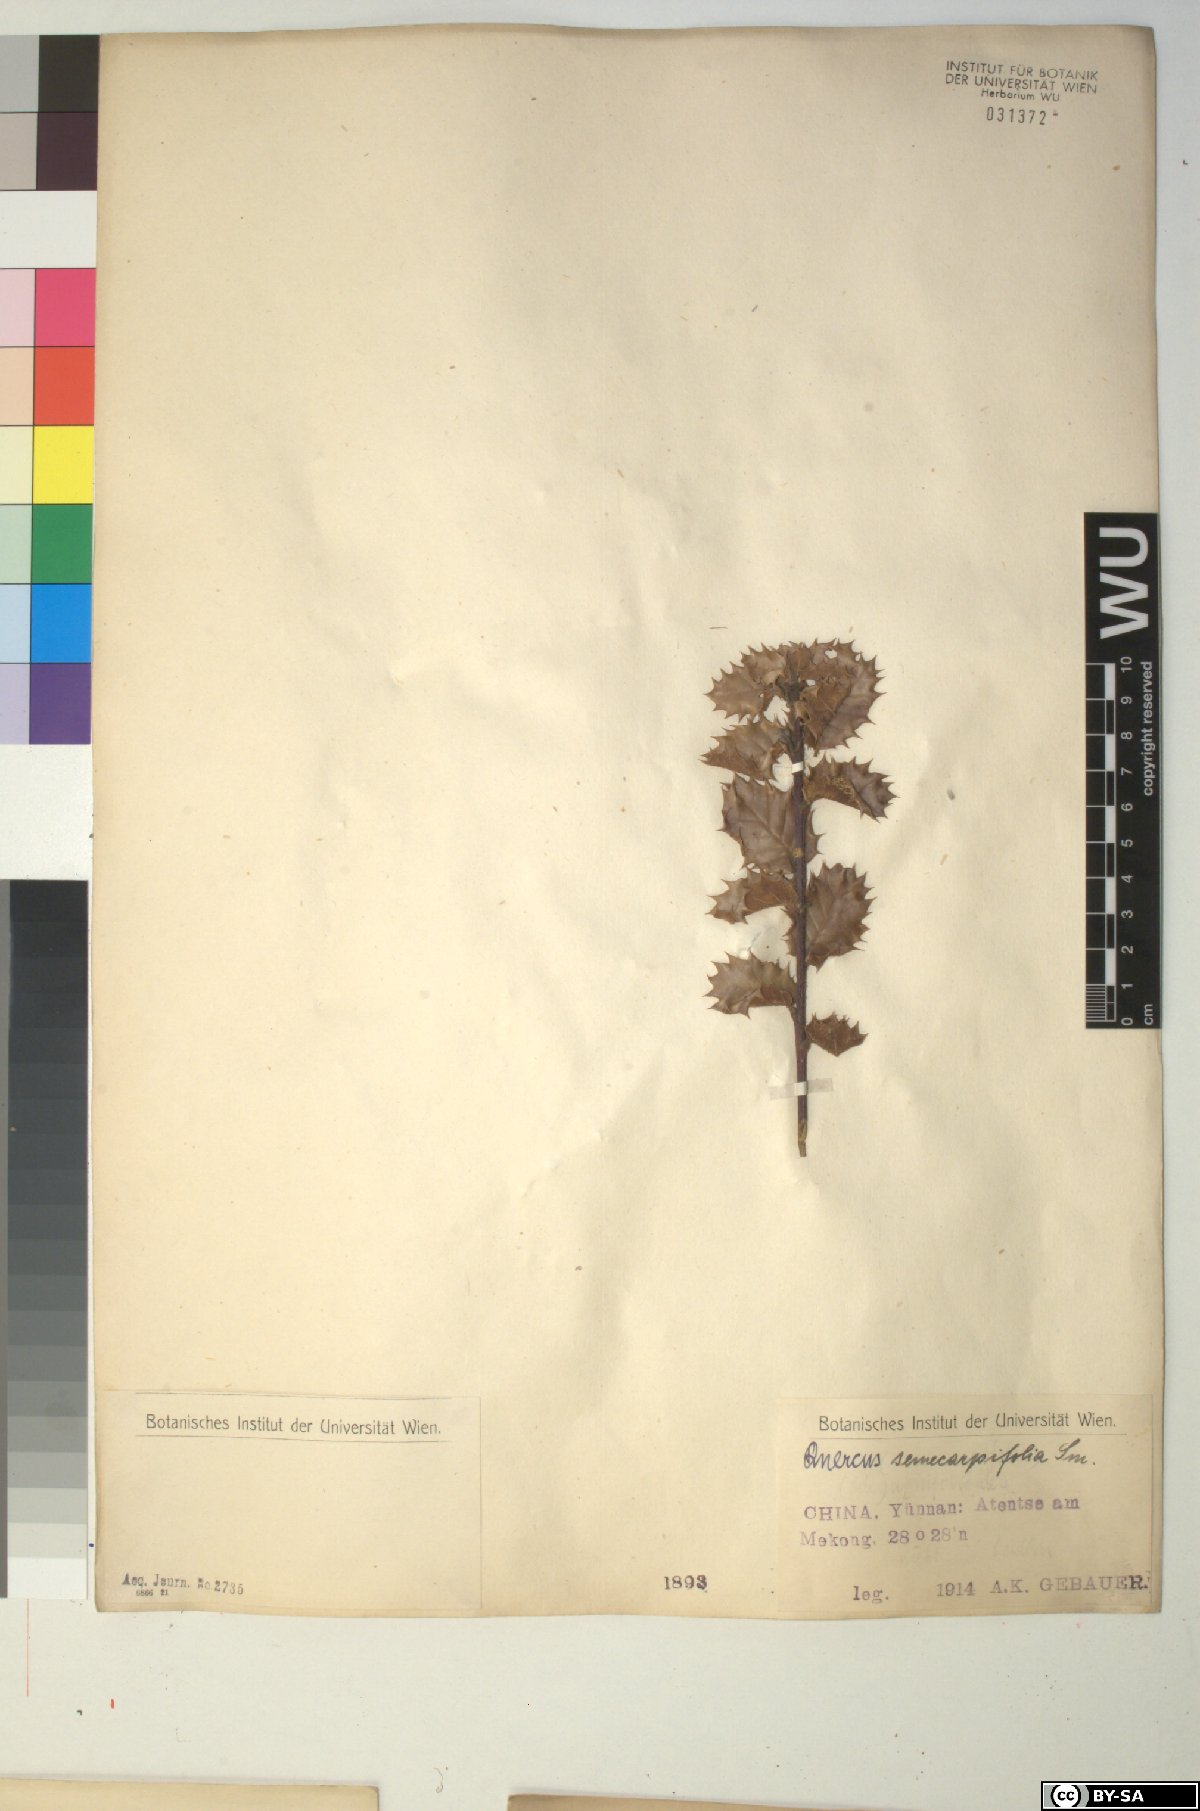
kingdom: Plantae
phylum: Tracheophyta
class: Magnoliopsida
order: Fagales
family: Fagaceae
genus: Quercus
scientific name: Quercus semecarpifolia
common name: Brown oak
